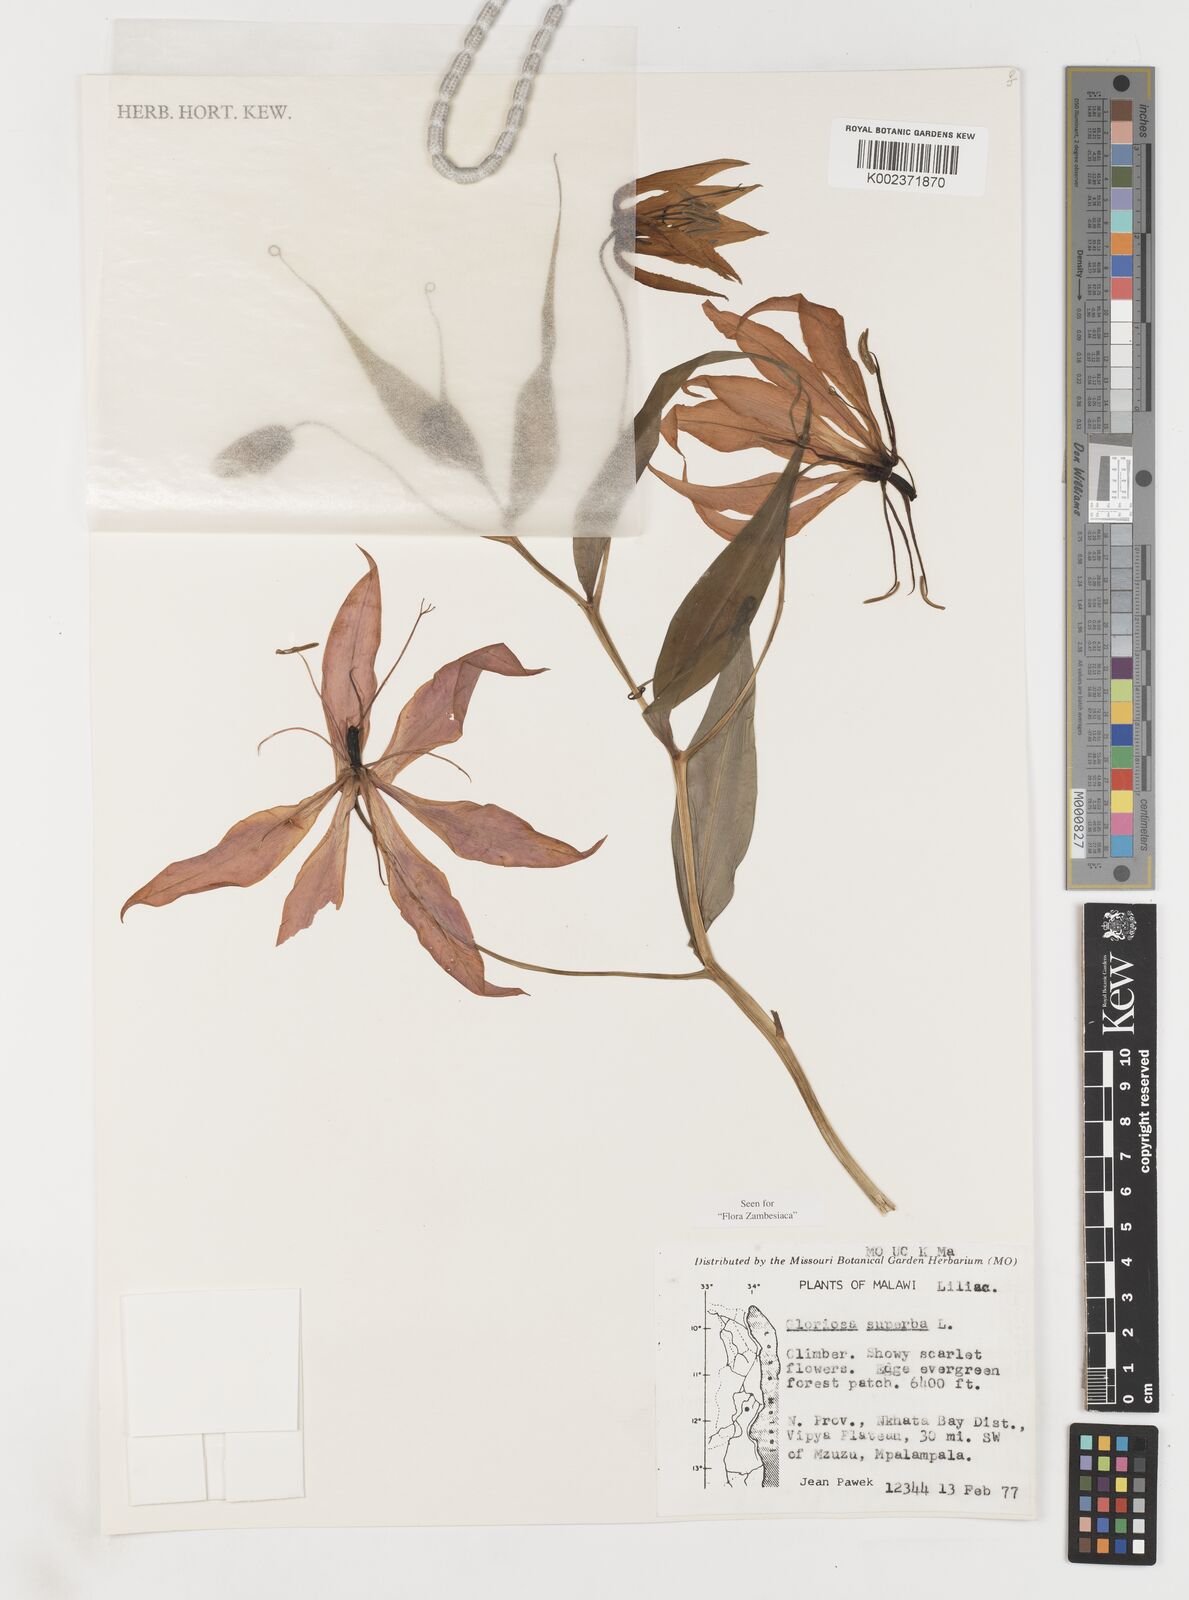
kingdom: Plantae
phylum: Tracheophyta
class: Liliopsida
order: Liliales
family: Colchicaceae
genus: Gloriosa
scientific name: Gloriosa simplex
